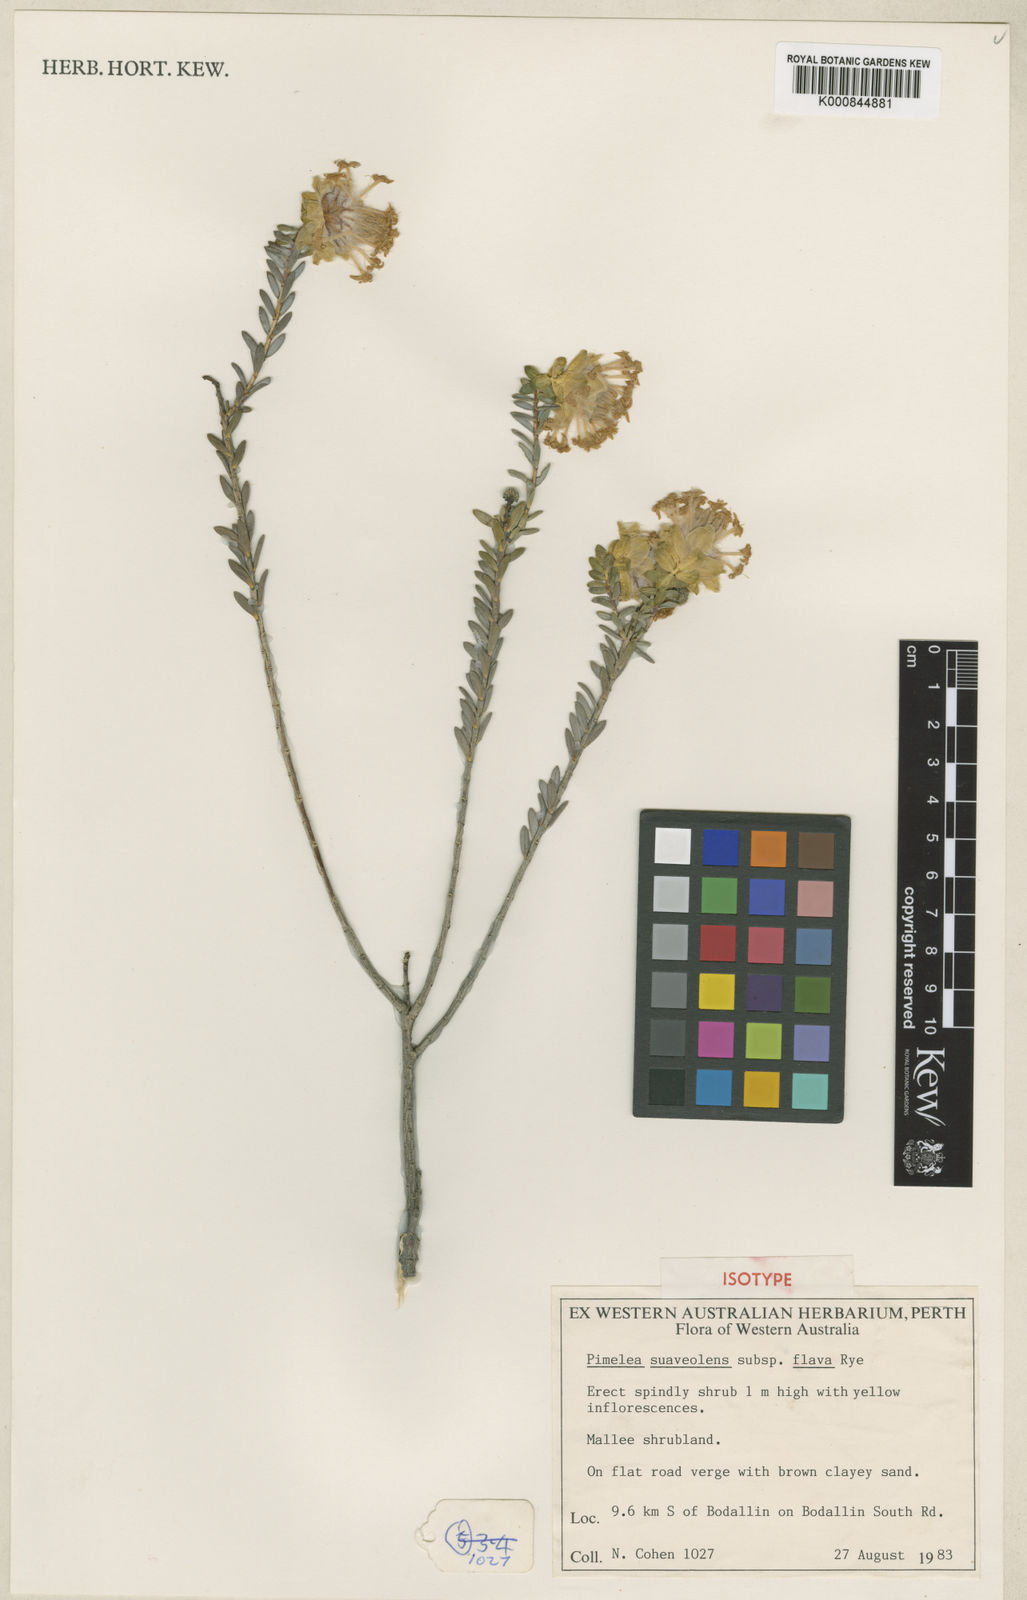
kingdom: Plantae
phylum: Tracheophyta
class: Magnoliopsida
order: Malvales
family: Thymelaeaceae
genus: Pimelea
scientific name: Pimelea suaveolens
